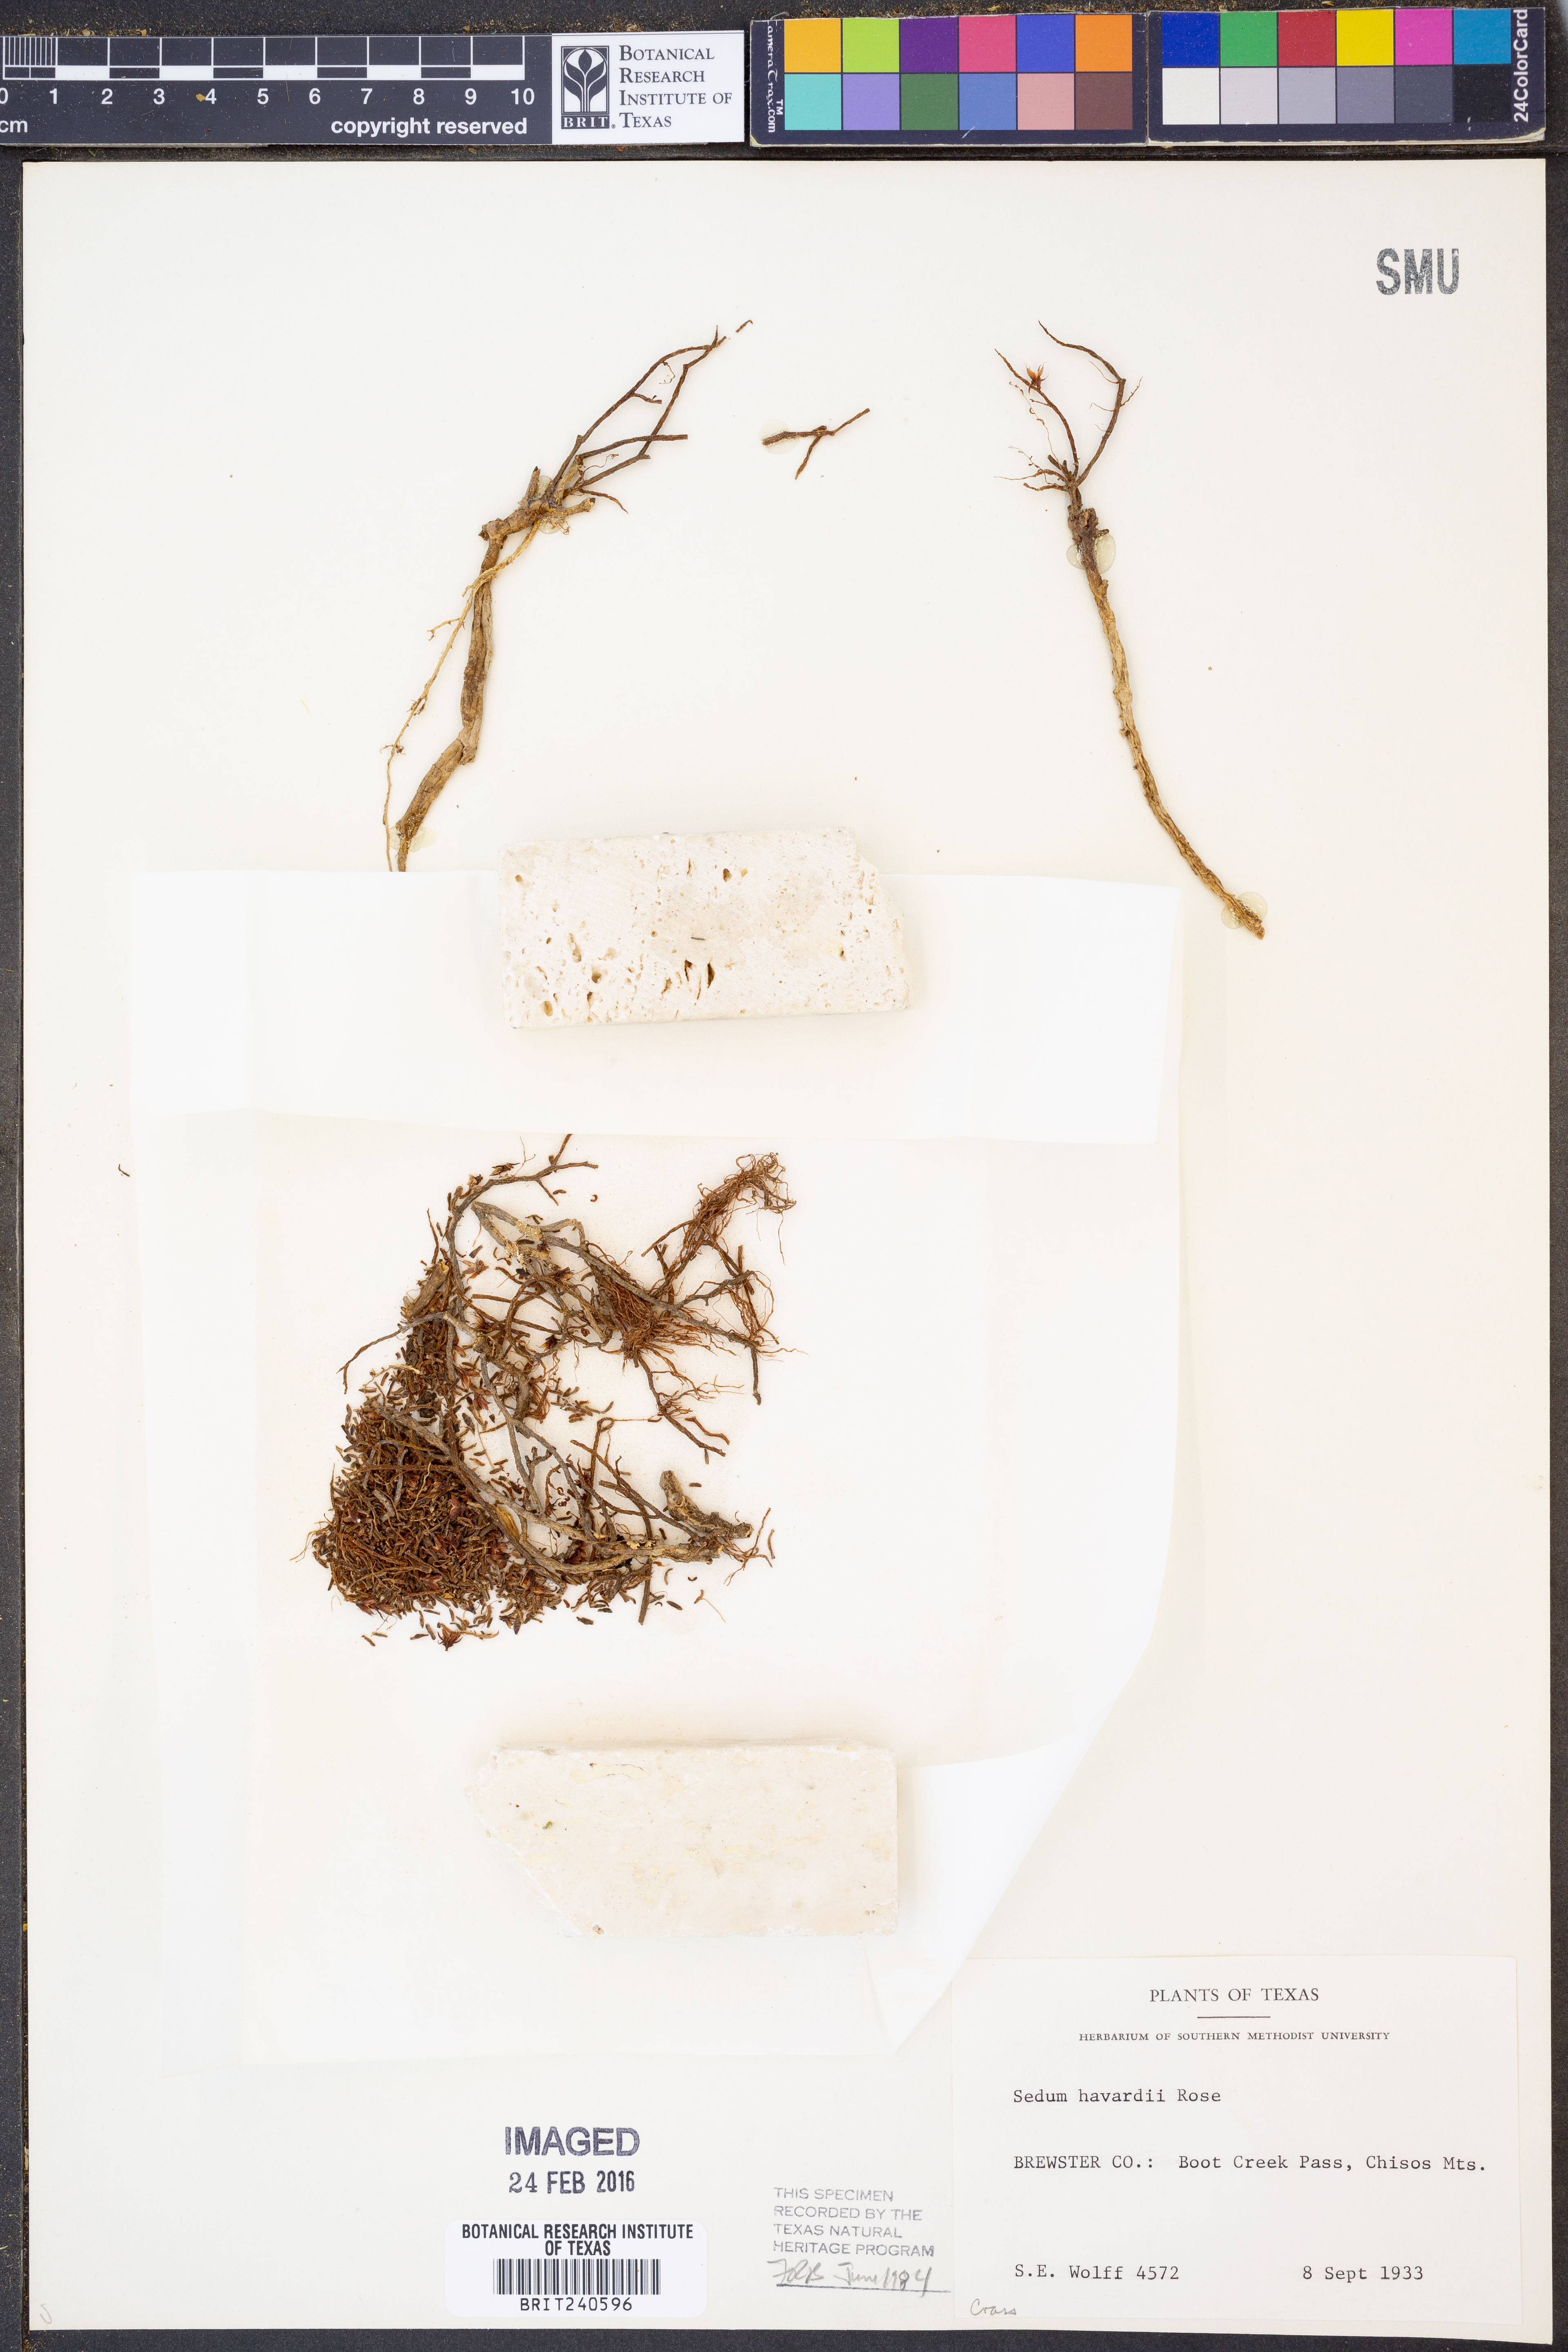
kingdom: Plantae
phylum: Tracheophyta
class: Magnoliopsida
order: Saxifragales
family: Crassulaceae
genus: Sedum
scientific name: Sedum havardii
